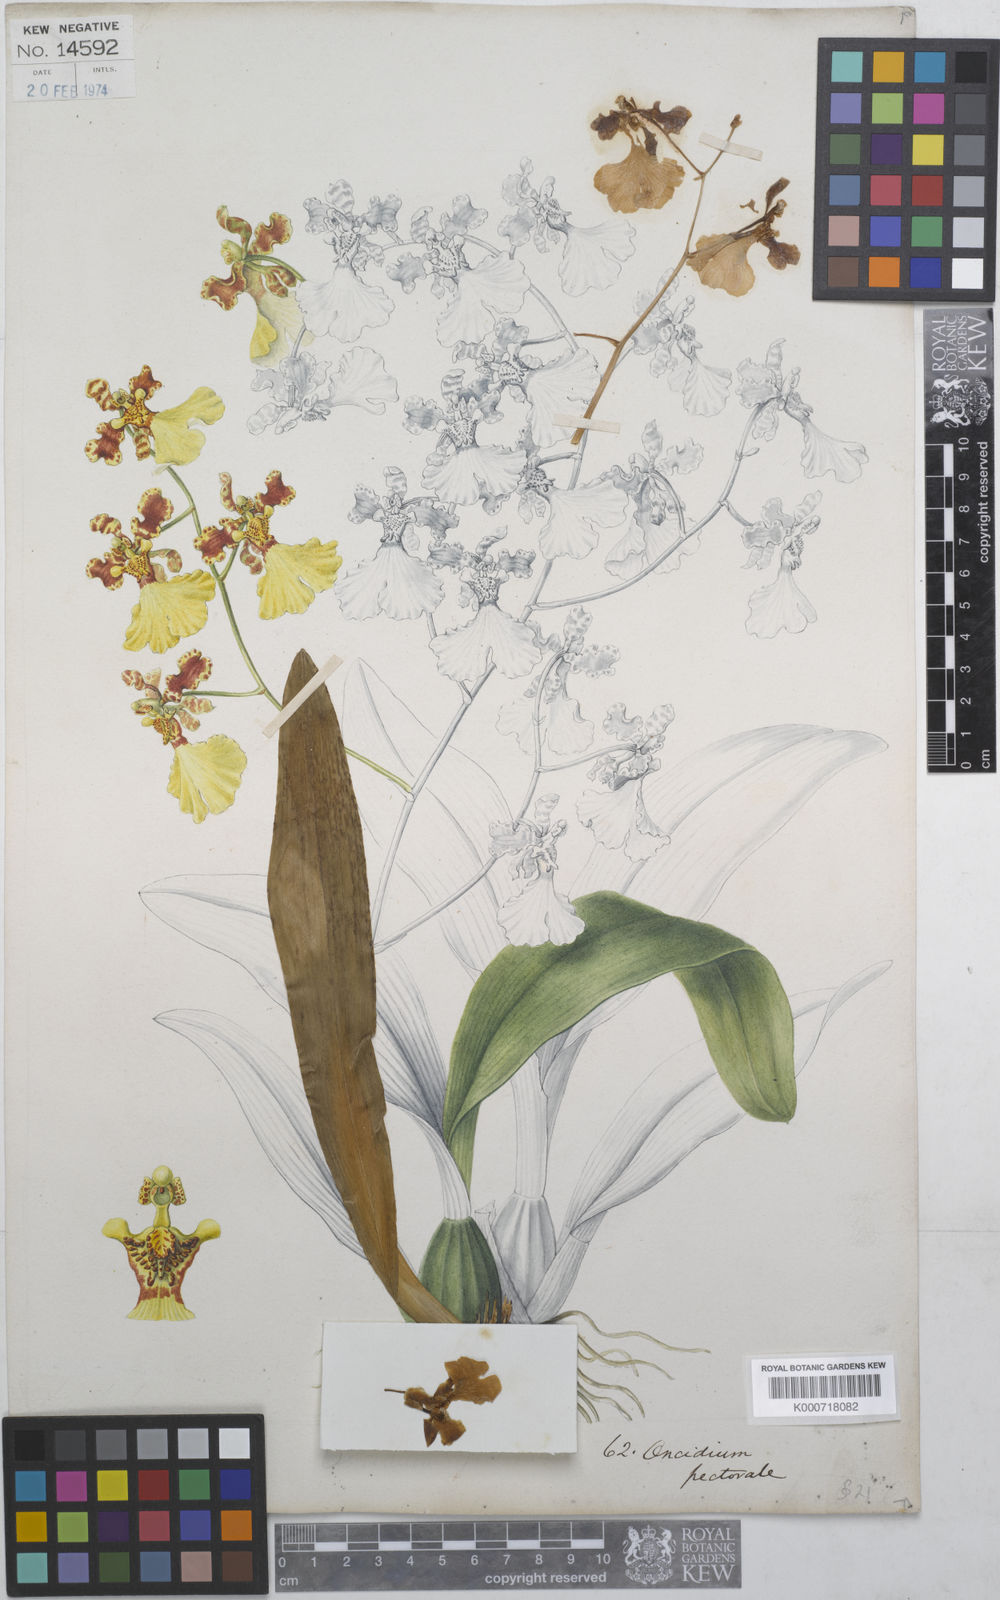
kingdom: Plantae
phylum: Tracheophyta
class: Liliopsida
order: Asparagales
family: Orchidaceae
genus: Gomesa
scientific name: Gomesa pectoralis
